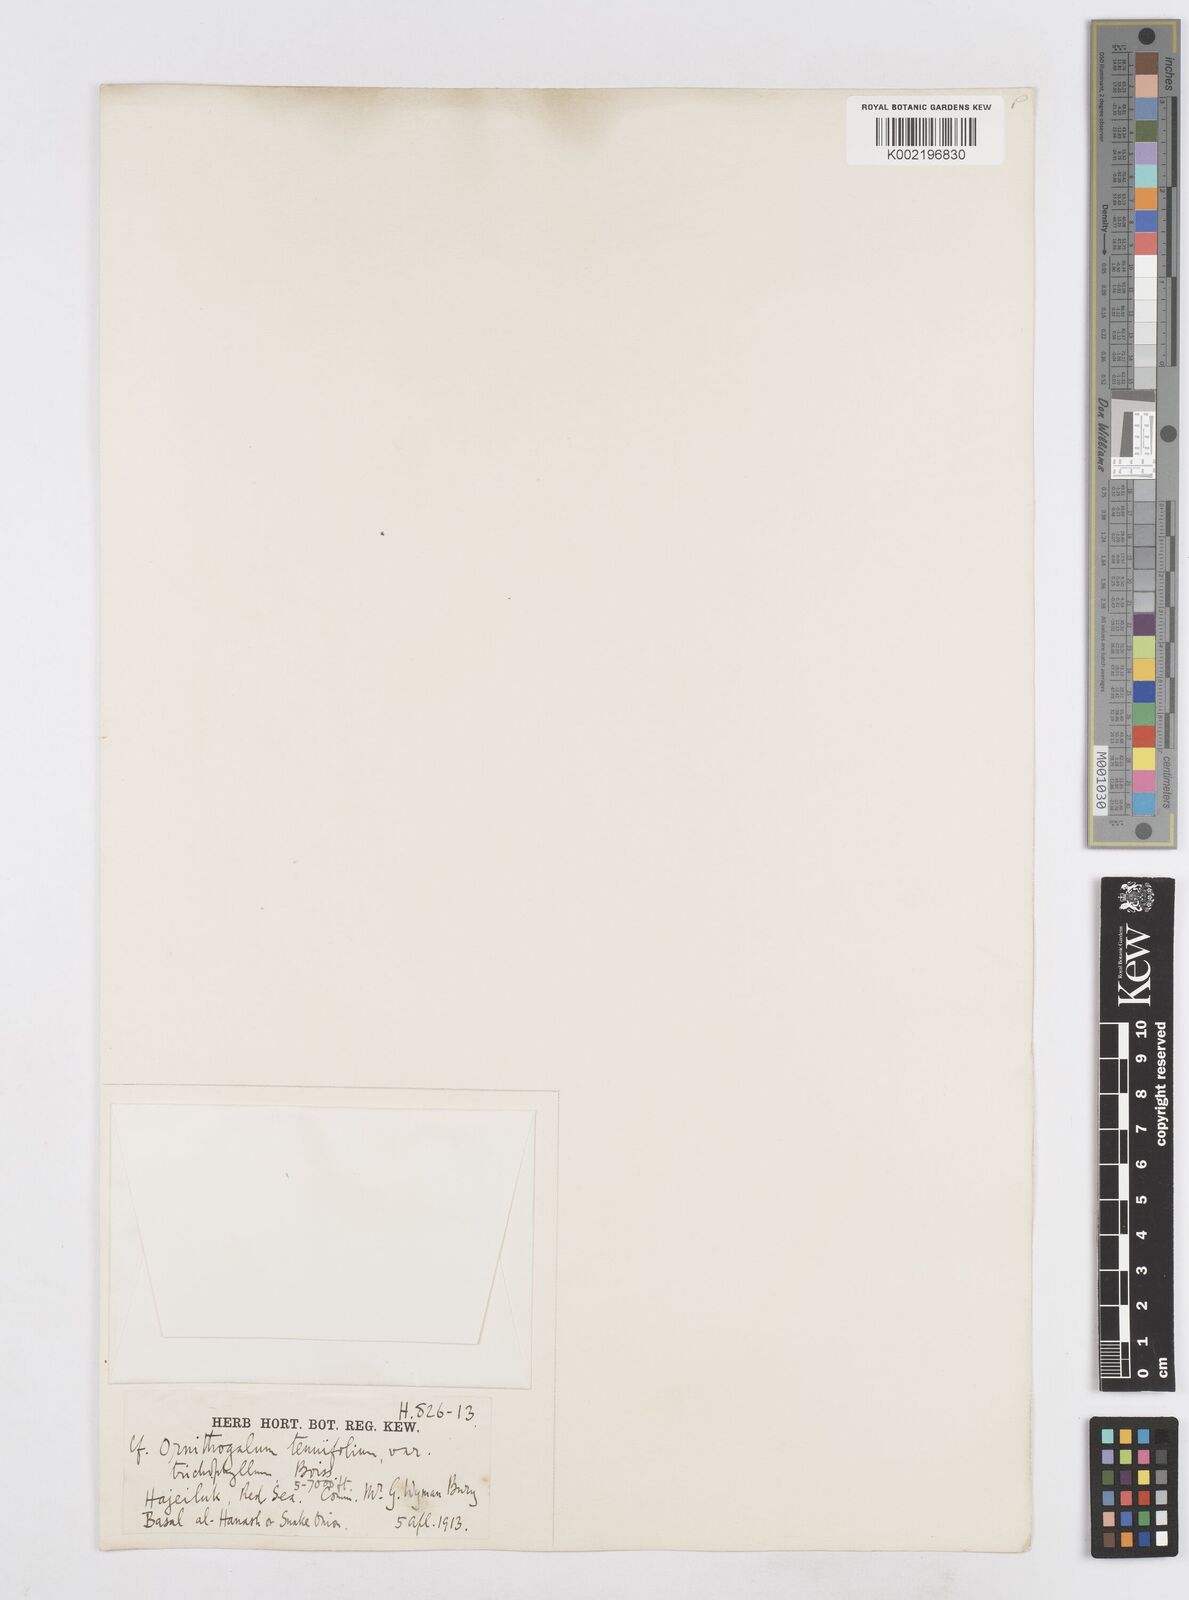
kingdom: Plantae
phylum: Tracheophyta
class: Liliopsida
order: Asparagales
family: Asparagaceae
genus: Ornithogalum
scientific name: Ornithogalum
